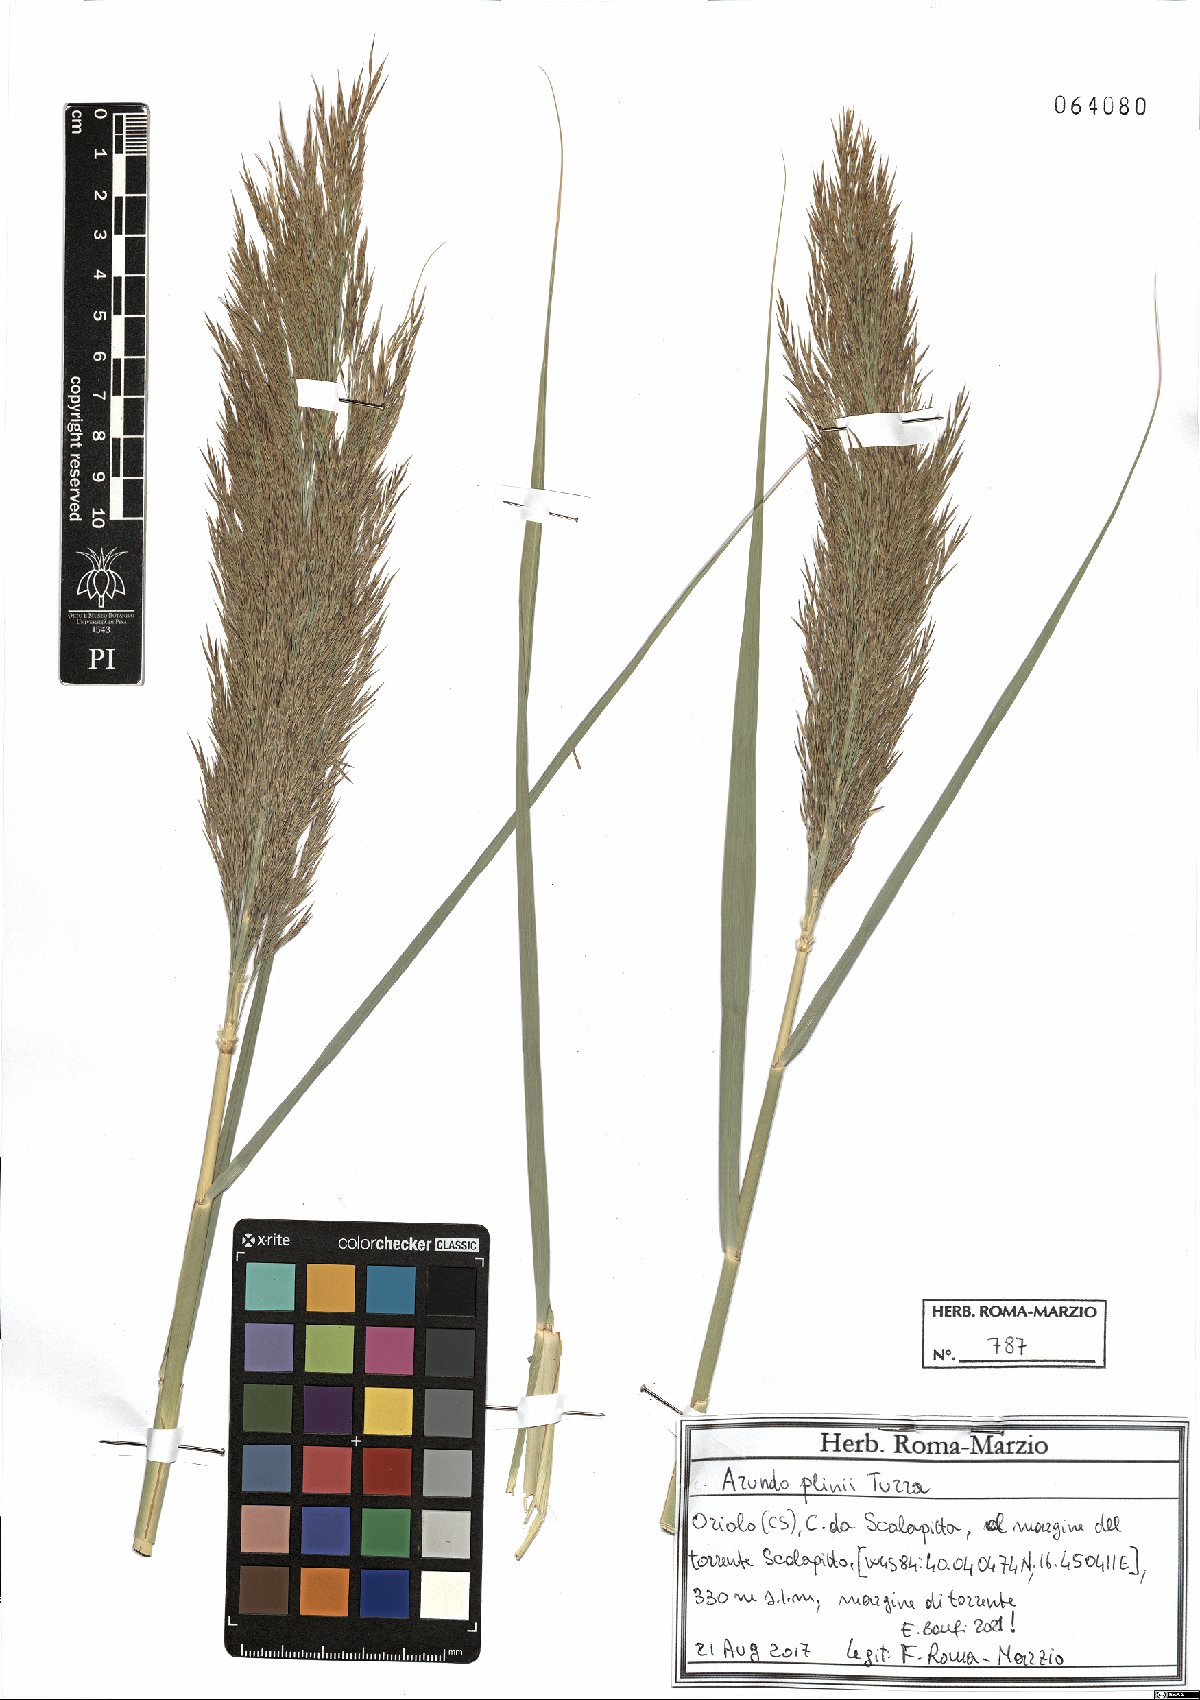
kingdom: Plantae
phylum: Tracheophyta
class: Liliopsida
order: Poales
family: Poaceae
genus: Arundo
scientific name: Arundo plinii
